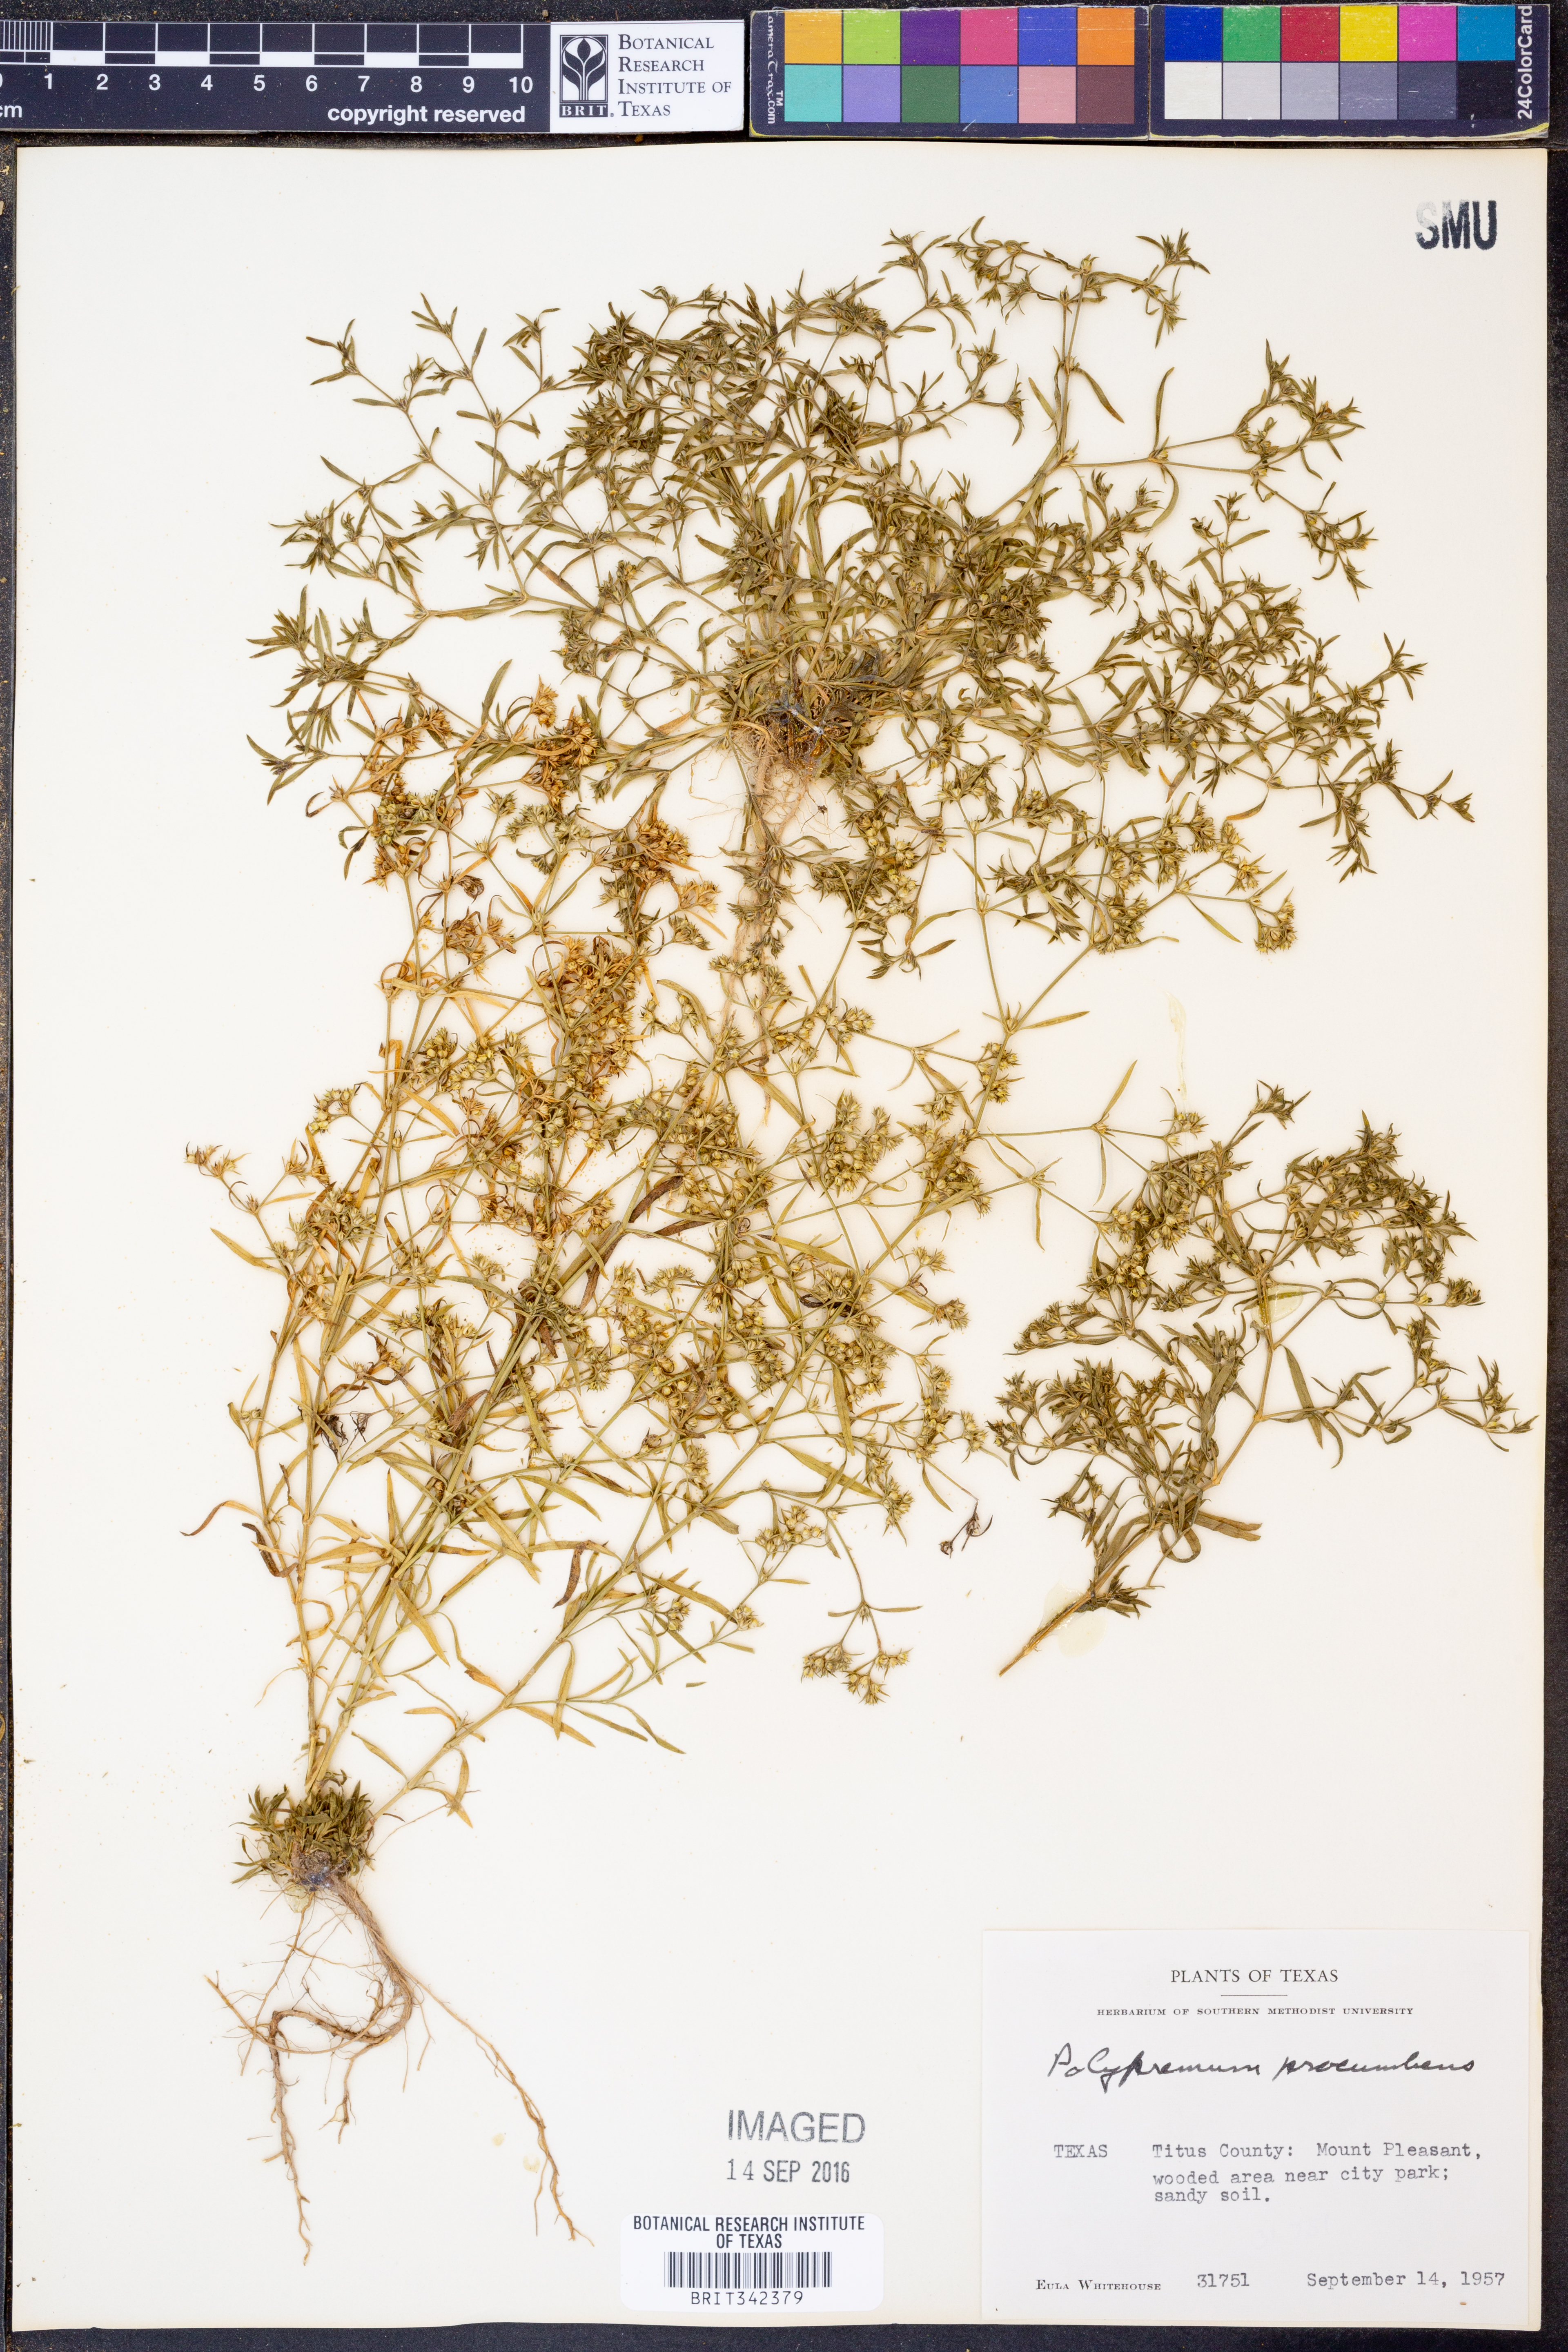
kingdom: Plantae
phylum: Tracheophyta
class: Magnoliopsida
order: Lamiales
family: Tetrachondraceae
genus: Polypremum
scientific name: Polypremum procumbens
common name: Juniper-leaf
